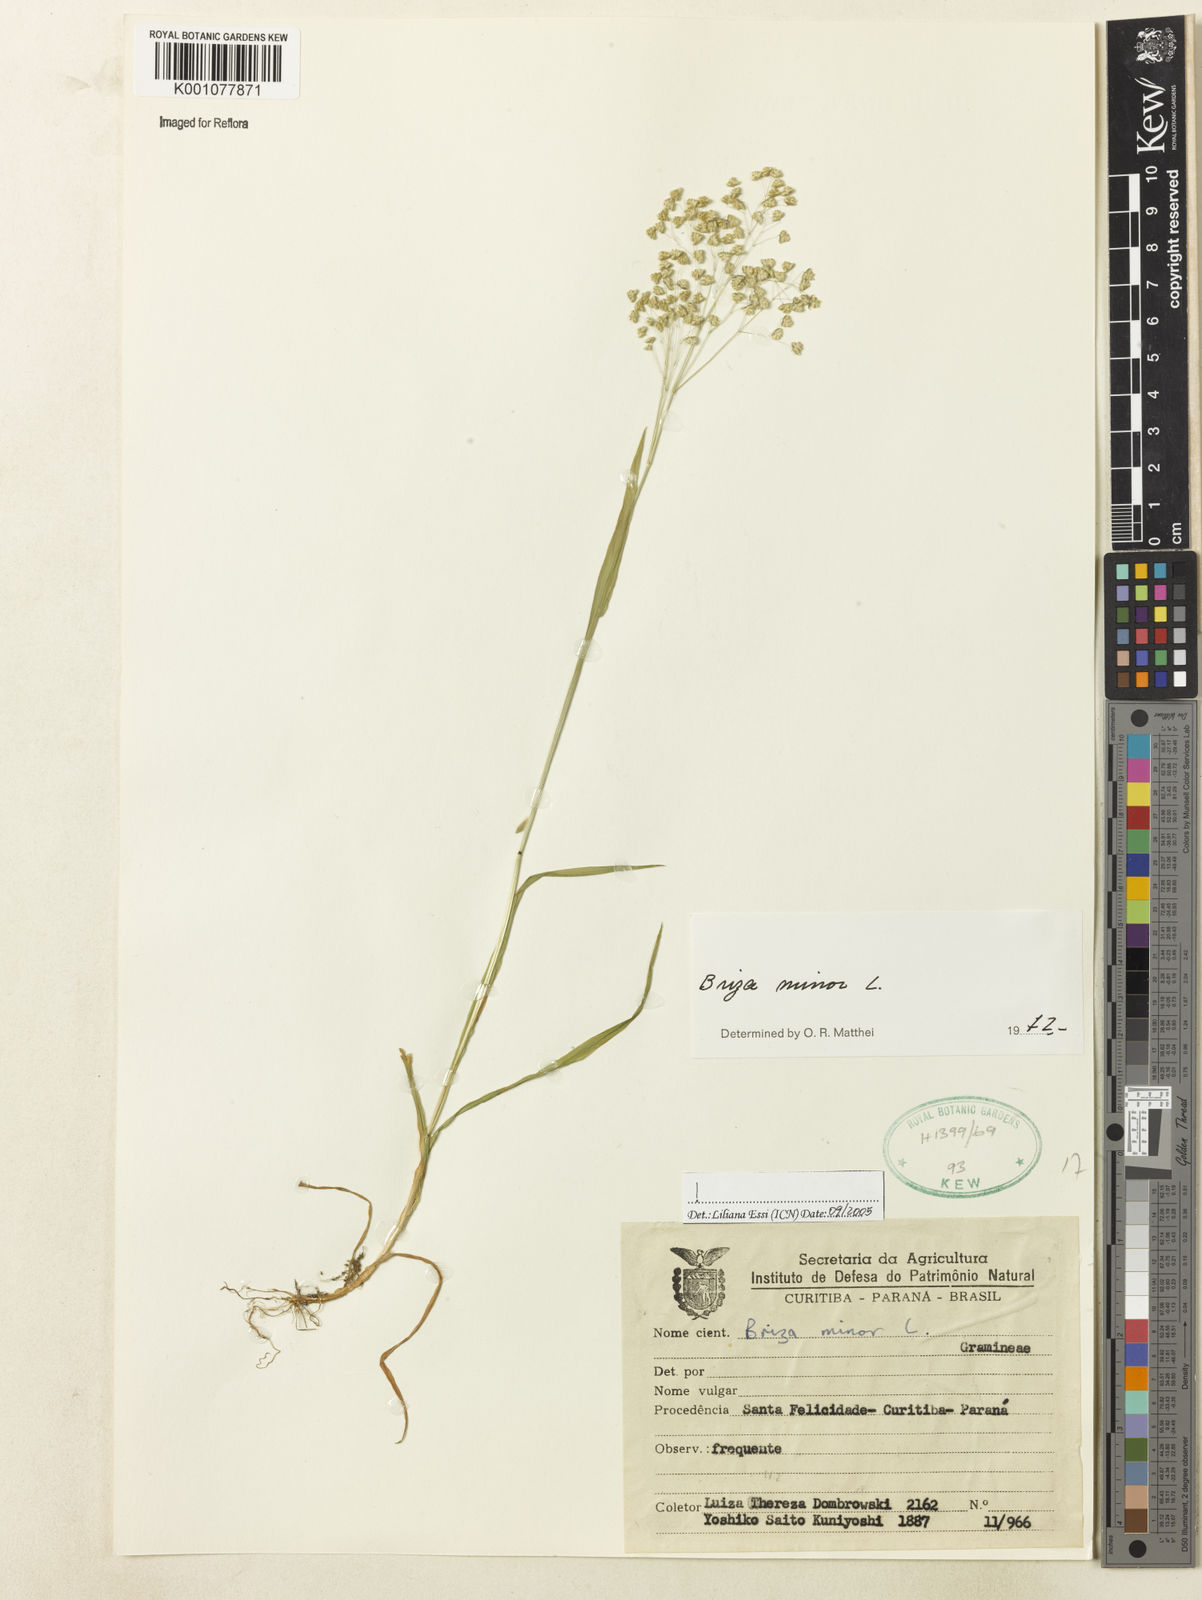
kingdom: Plantae
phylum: Tracheophyta
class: Liliopsida
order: Poales
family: Poaceae
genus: Briza
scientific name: Briza minor
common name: Lesser quaking-grass
